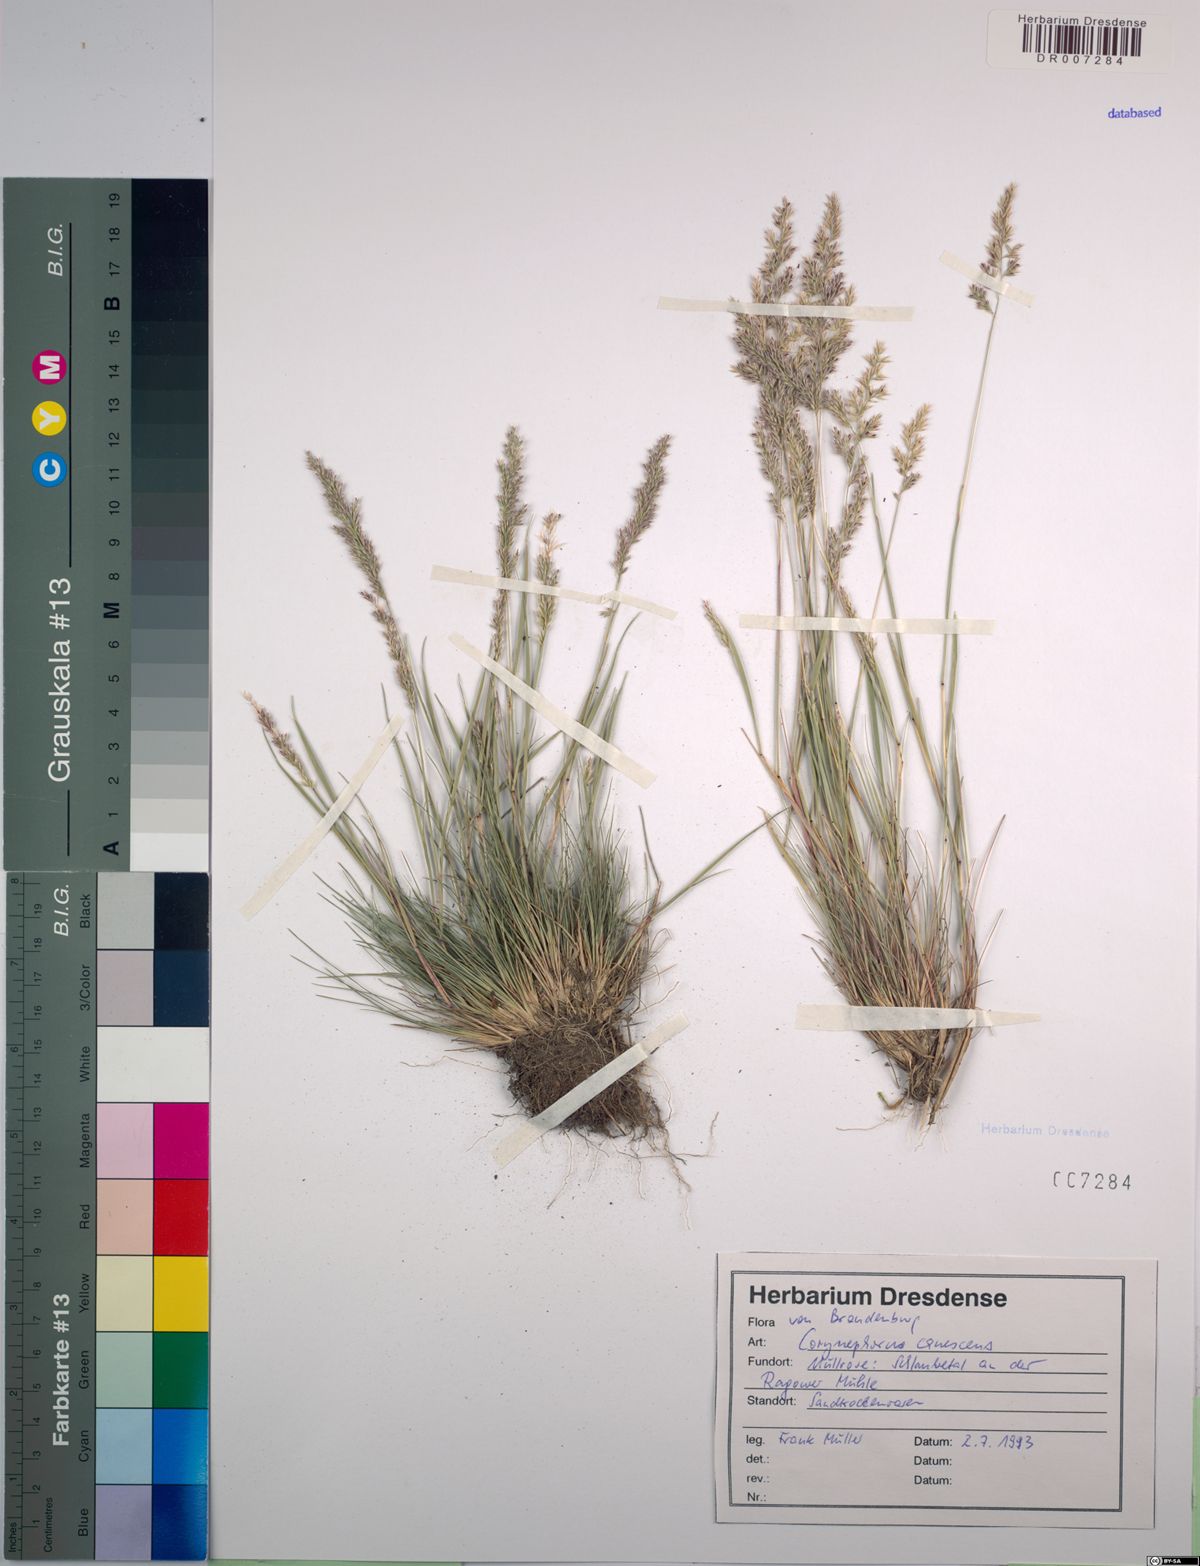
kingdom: Plantae
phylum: Tracheophyta
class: Liliopsida
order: Poales
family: Poaceae
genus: Corynephorus
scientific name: Corynephorus canescens
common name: Grey hair-grass
